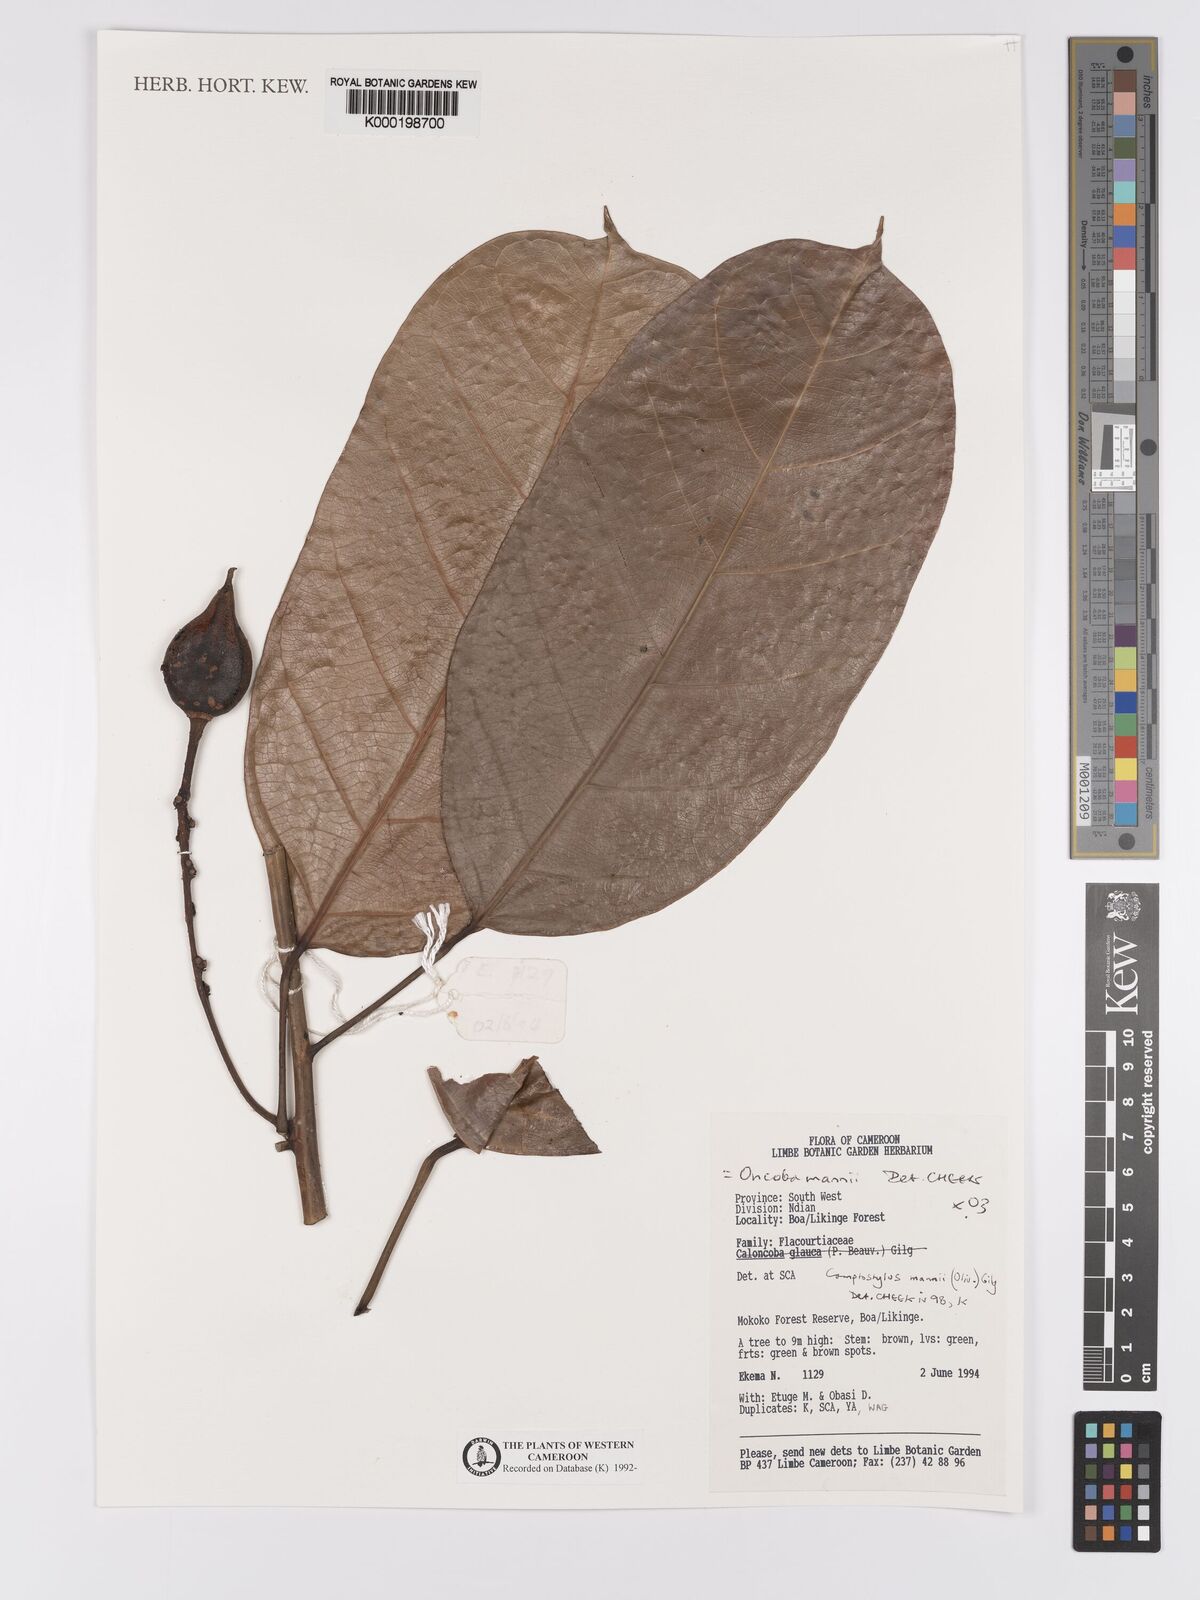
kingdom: Plantae
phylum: Tracheophyta
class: Magnoliopsida
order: Malpighiales
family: Achariaceae
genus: Camptostylus
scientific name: Camptostylus mannii
